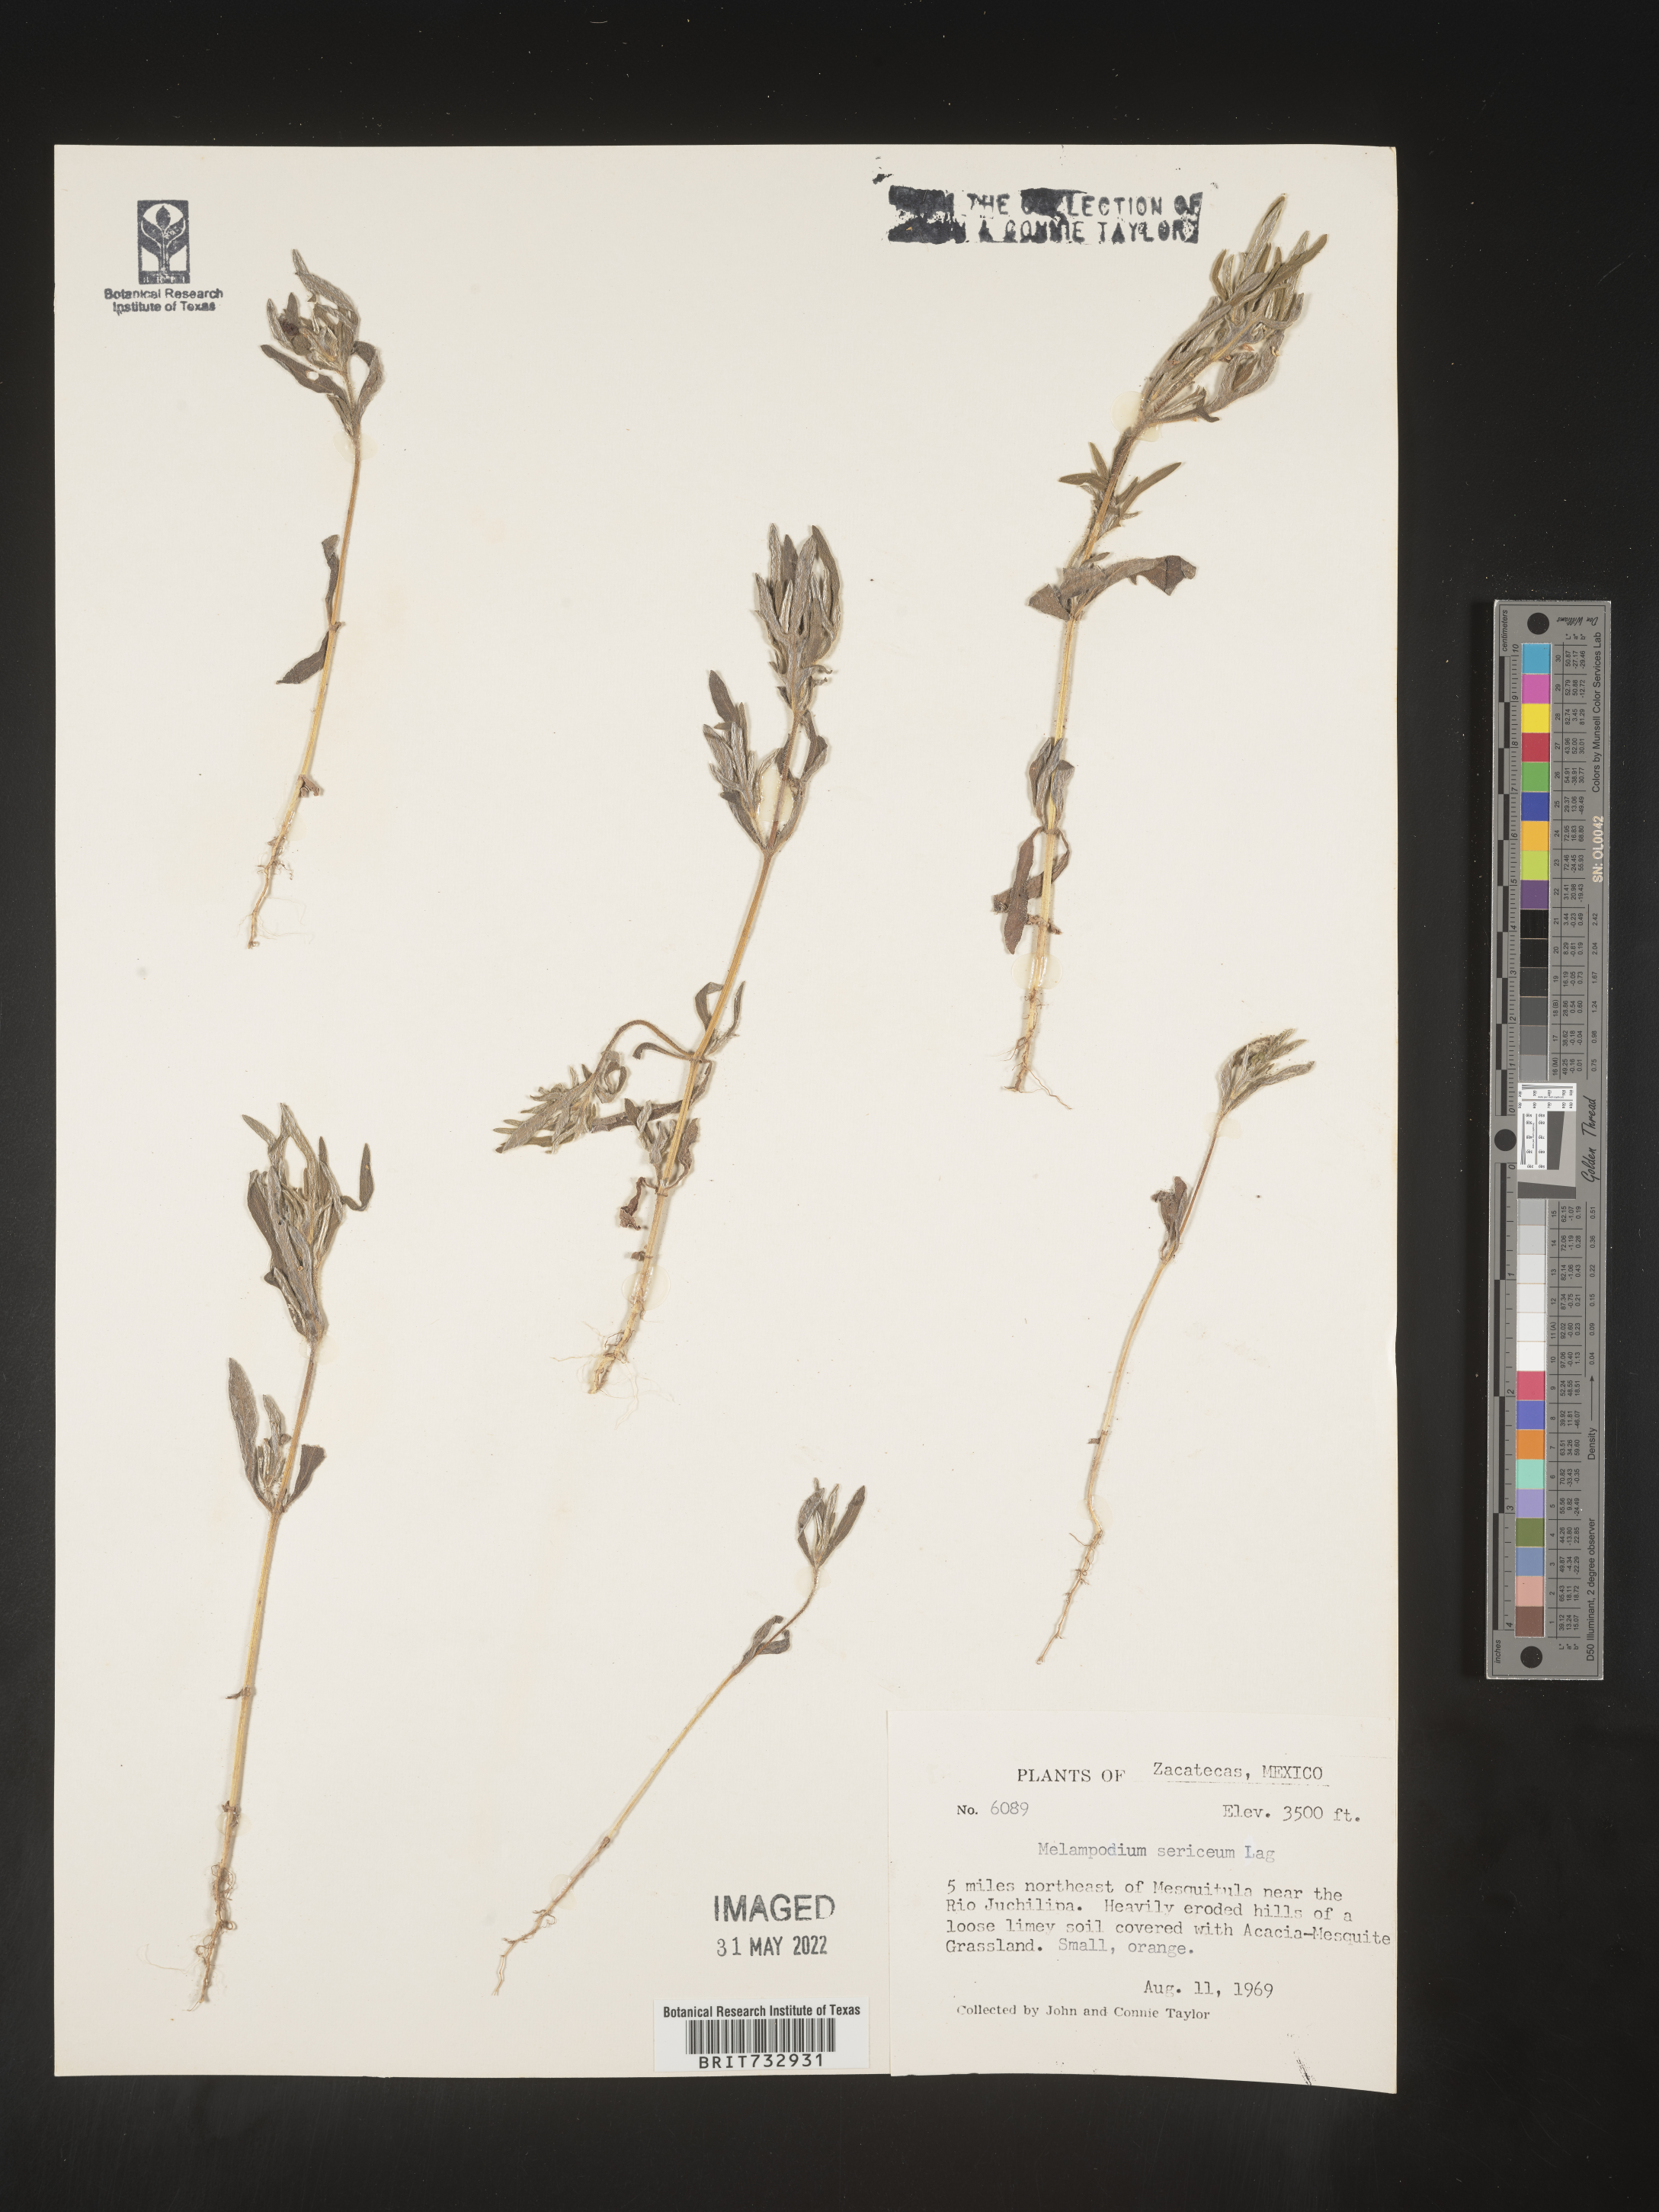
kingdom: Plantae
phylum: Tracheophyta
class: Magnoliopsida
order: Asterales
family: Asteraceae
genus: Melampodium
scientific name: Melampodium
